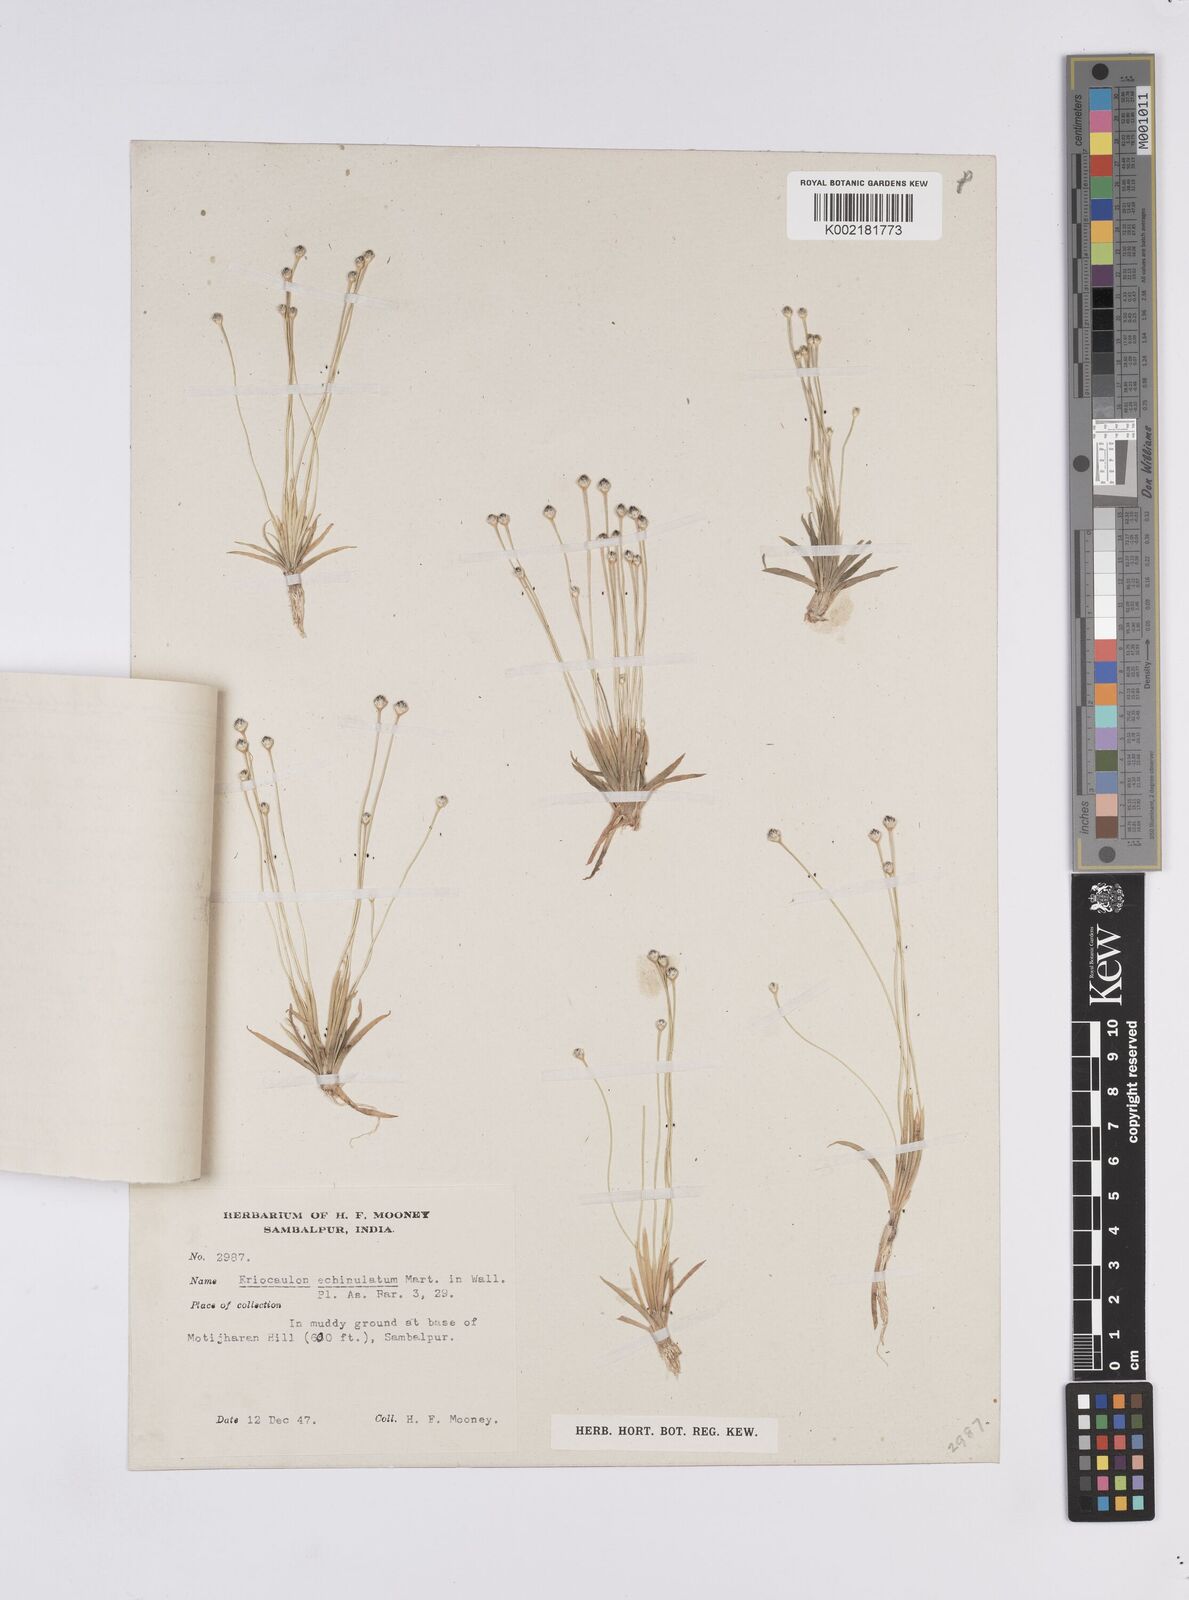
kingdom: Plantae
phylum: Tracheophyta
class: Liliopsida
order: Poales
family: Eriocaulaceae
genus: Eriocaulon
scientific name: Eriocaulon echinulatum
